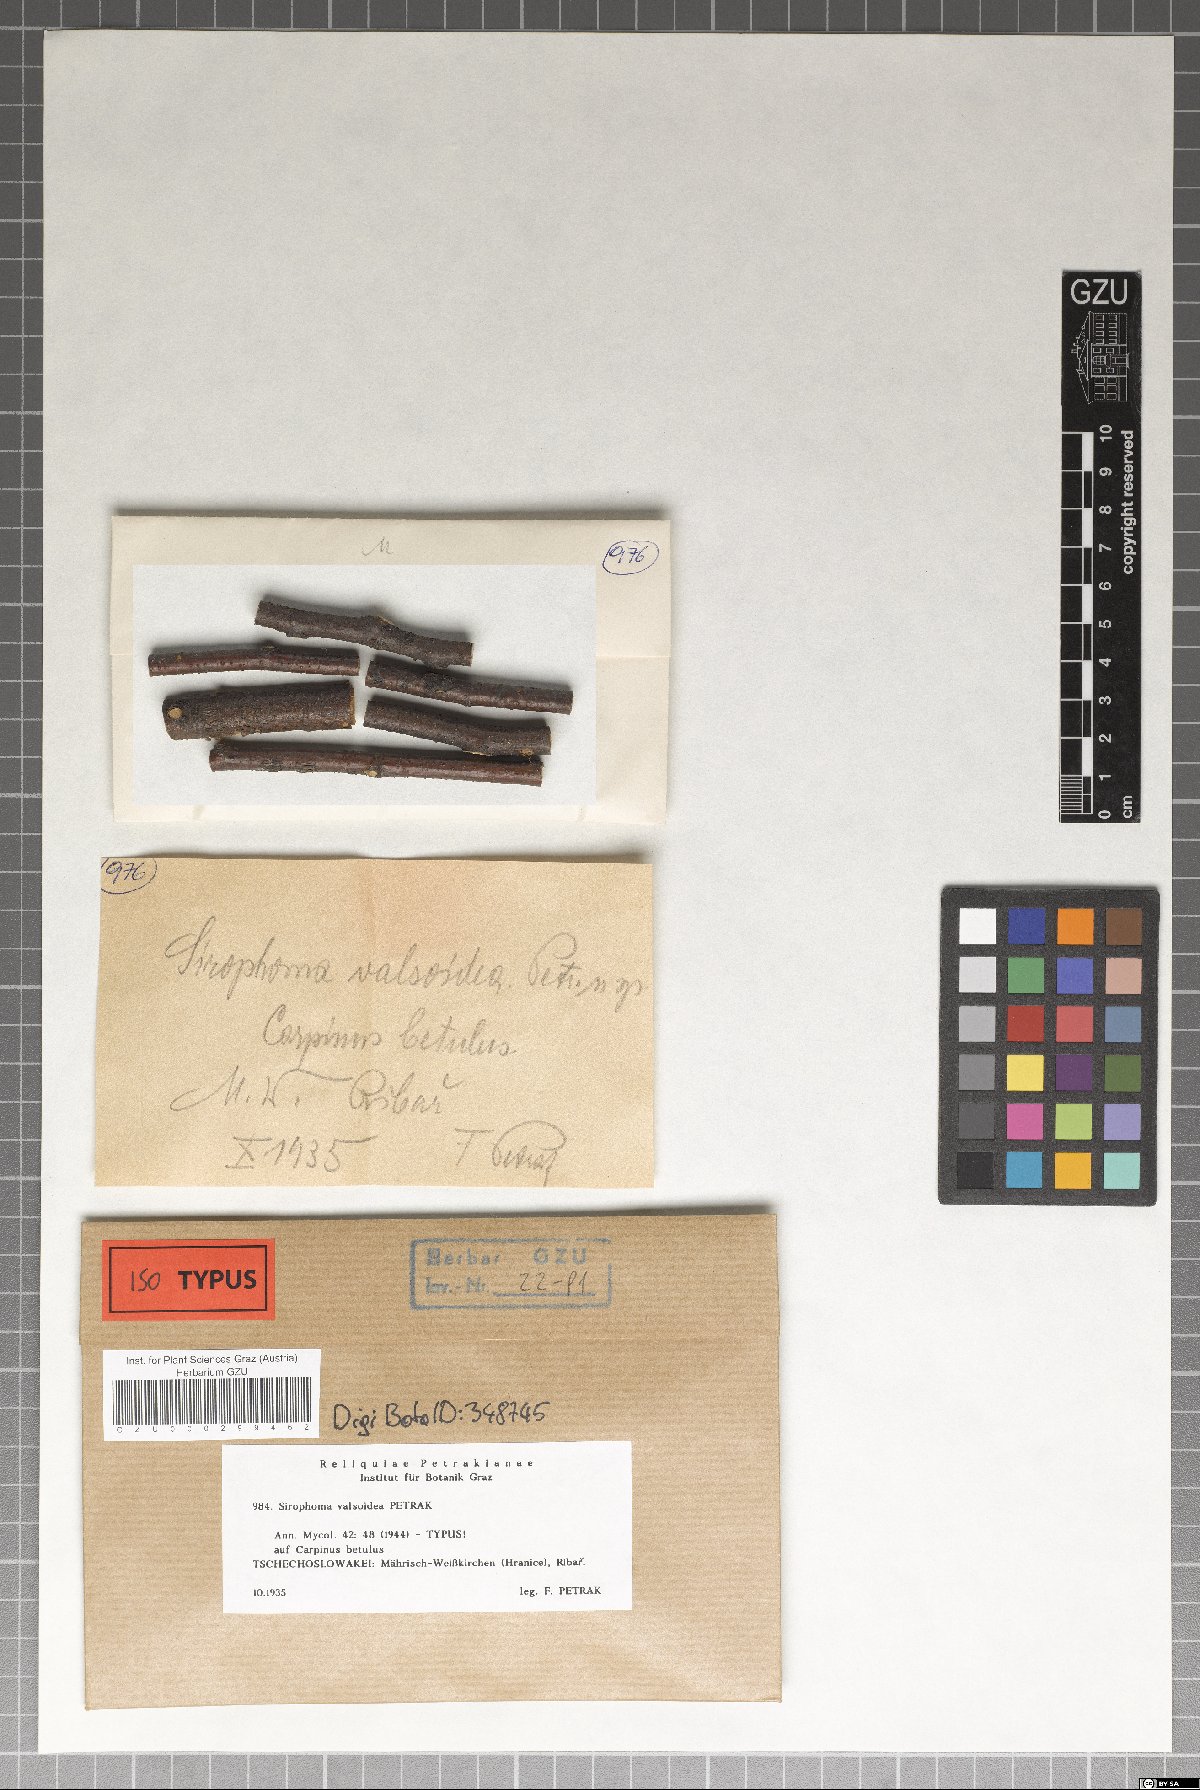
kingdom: Fungi
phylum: Ascomycota
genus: Sirophoma
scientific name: Sirophoma valsoidea
